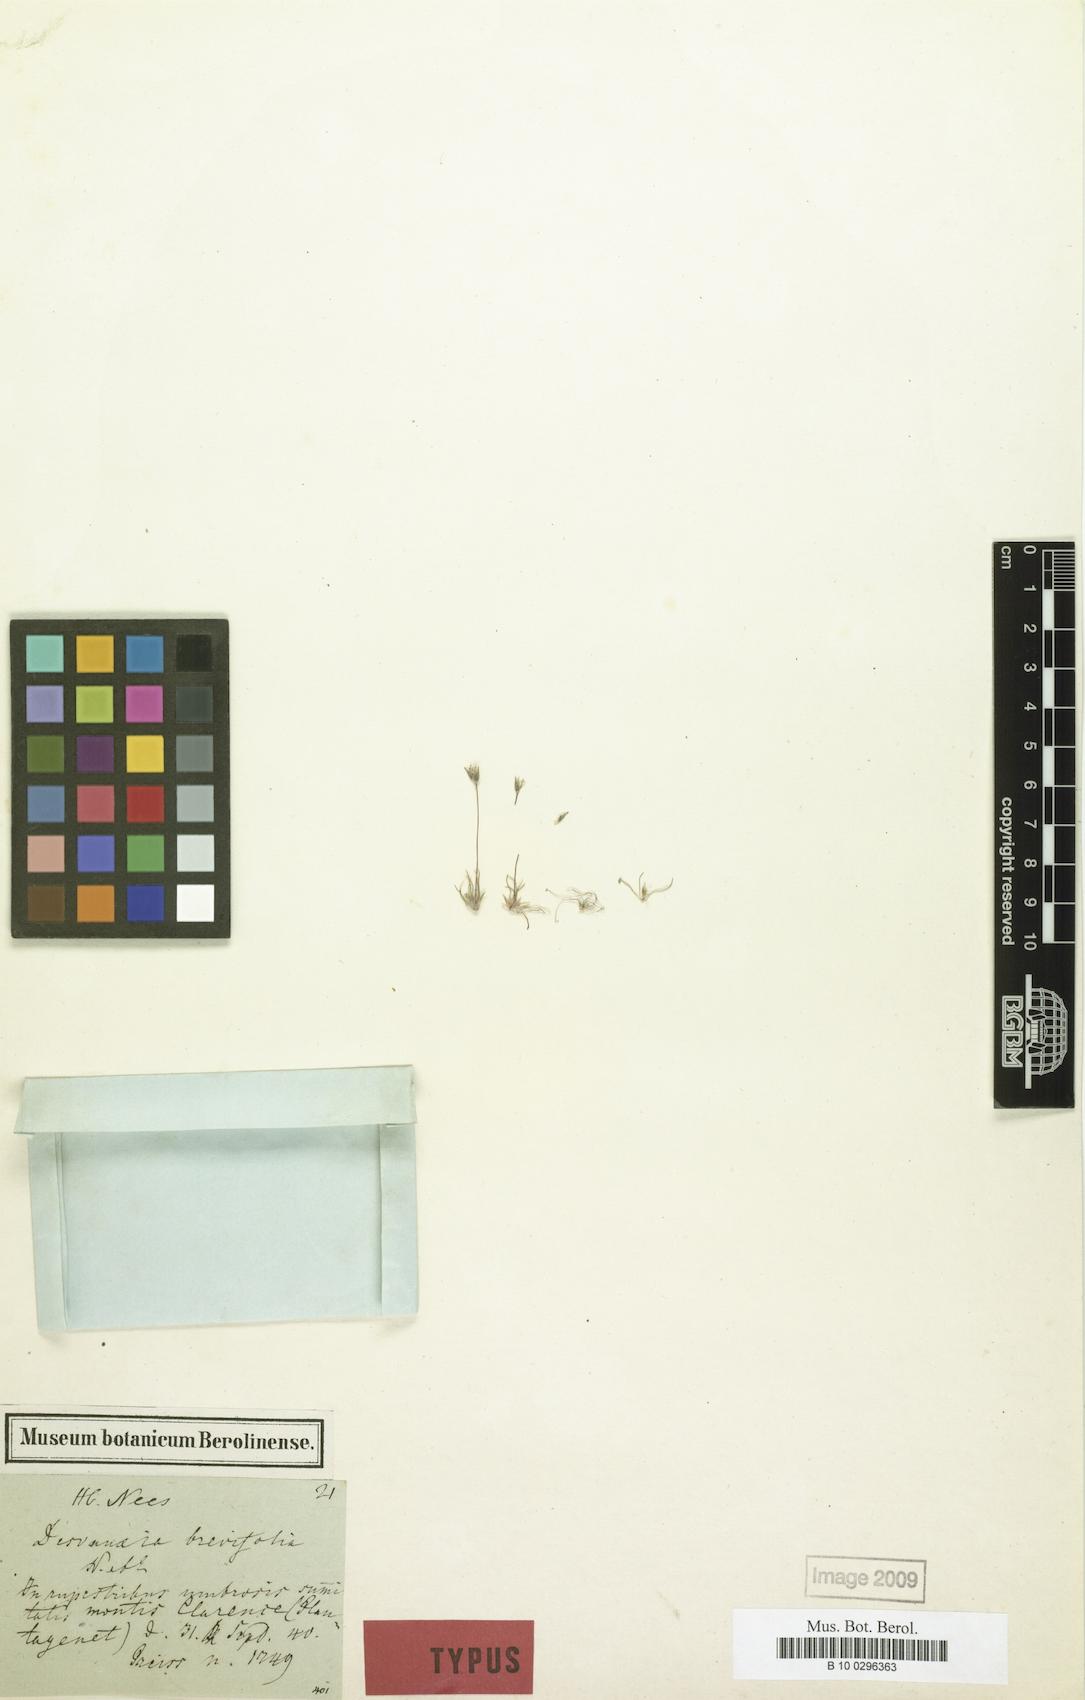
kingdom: Plantae
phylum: Tracheophyta
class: Liliopsida
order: Poales
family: Restionaceae
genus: Centrolepis
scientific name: Centrolepis drummondiana
